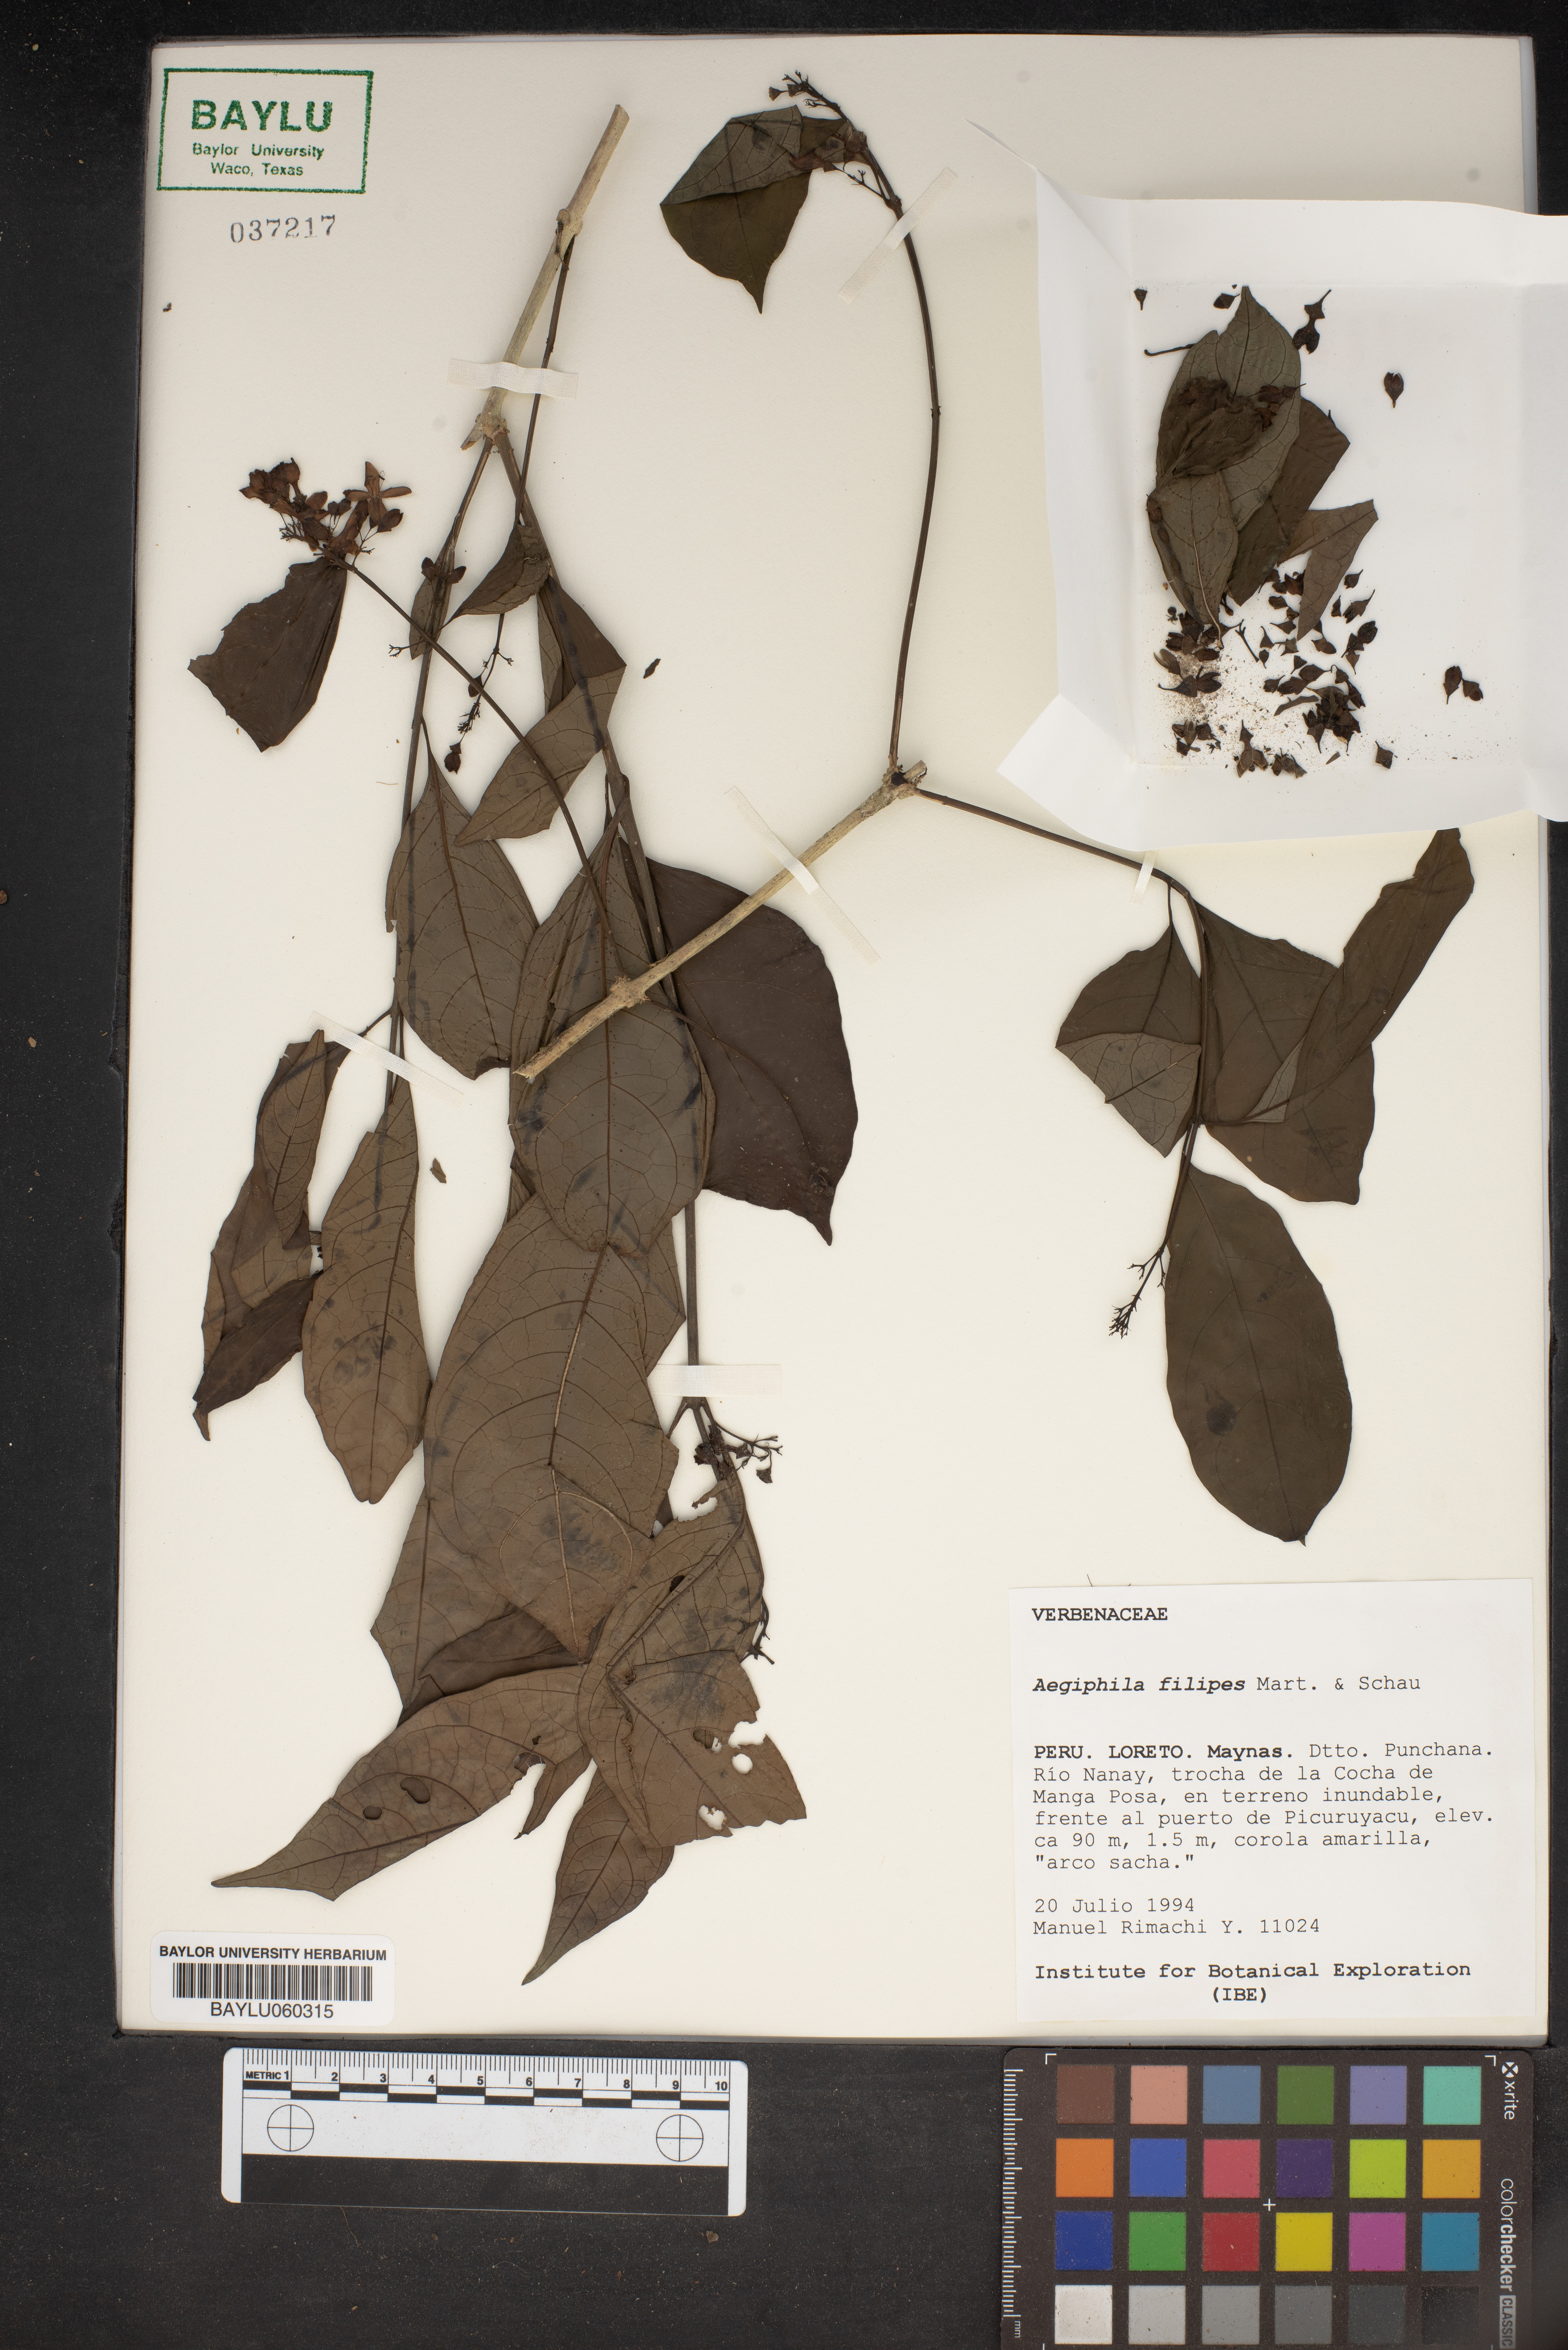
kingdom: Plantae
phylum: Tracheophyta
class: Magnoliopsida
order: Lamiales
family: Lamiaceae
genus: Aegiphila
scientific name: Aegiphila filipes
